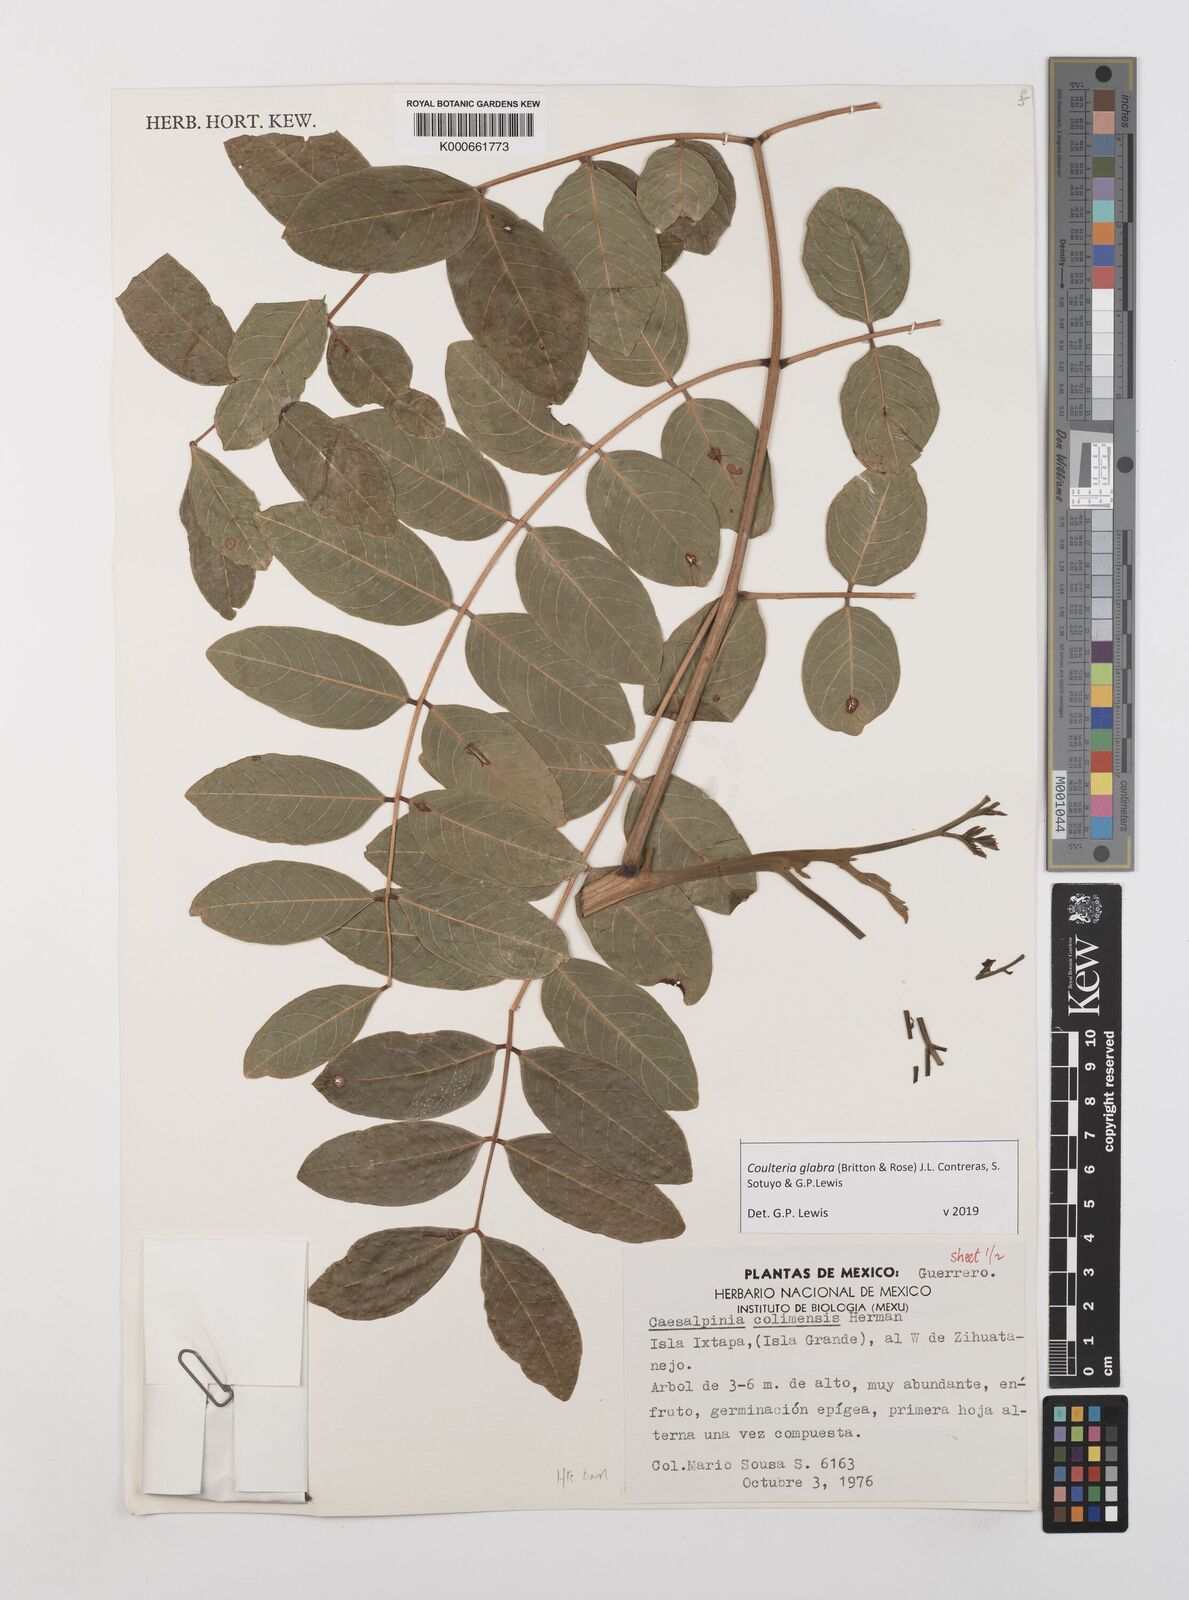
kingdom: Plantae
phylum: Tracheophyta
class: Magnoliopsida
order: Fabales
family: Fabaceae
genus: Coulteria
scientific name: Coulteria glabra
